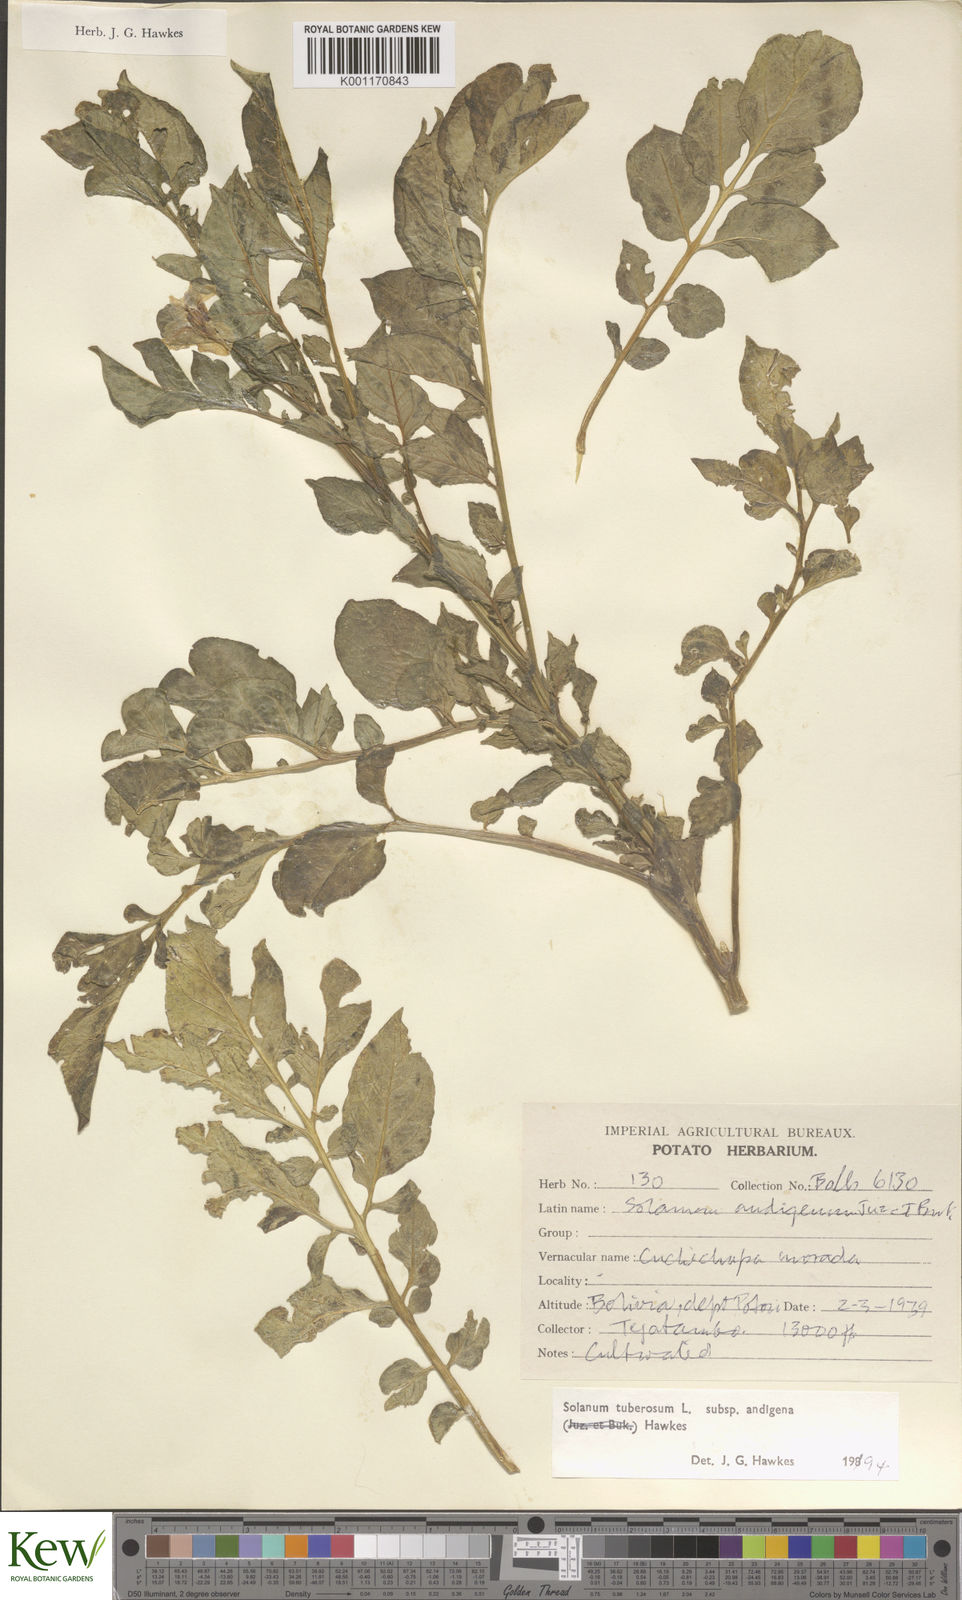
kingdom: Plantae
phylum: Tracheophyta
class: Magnoliopsida
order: Solanales
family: Solanaceae
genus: Solanum
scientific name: Solanum tuberosum
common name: Potato
